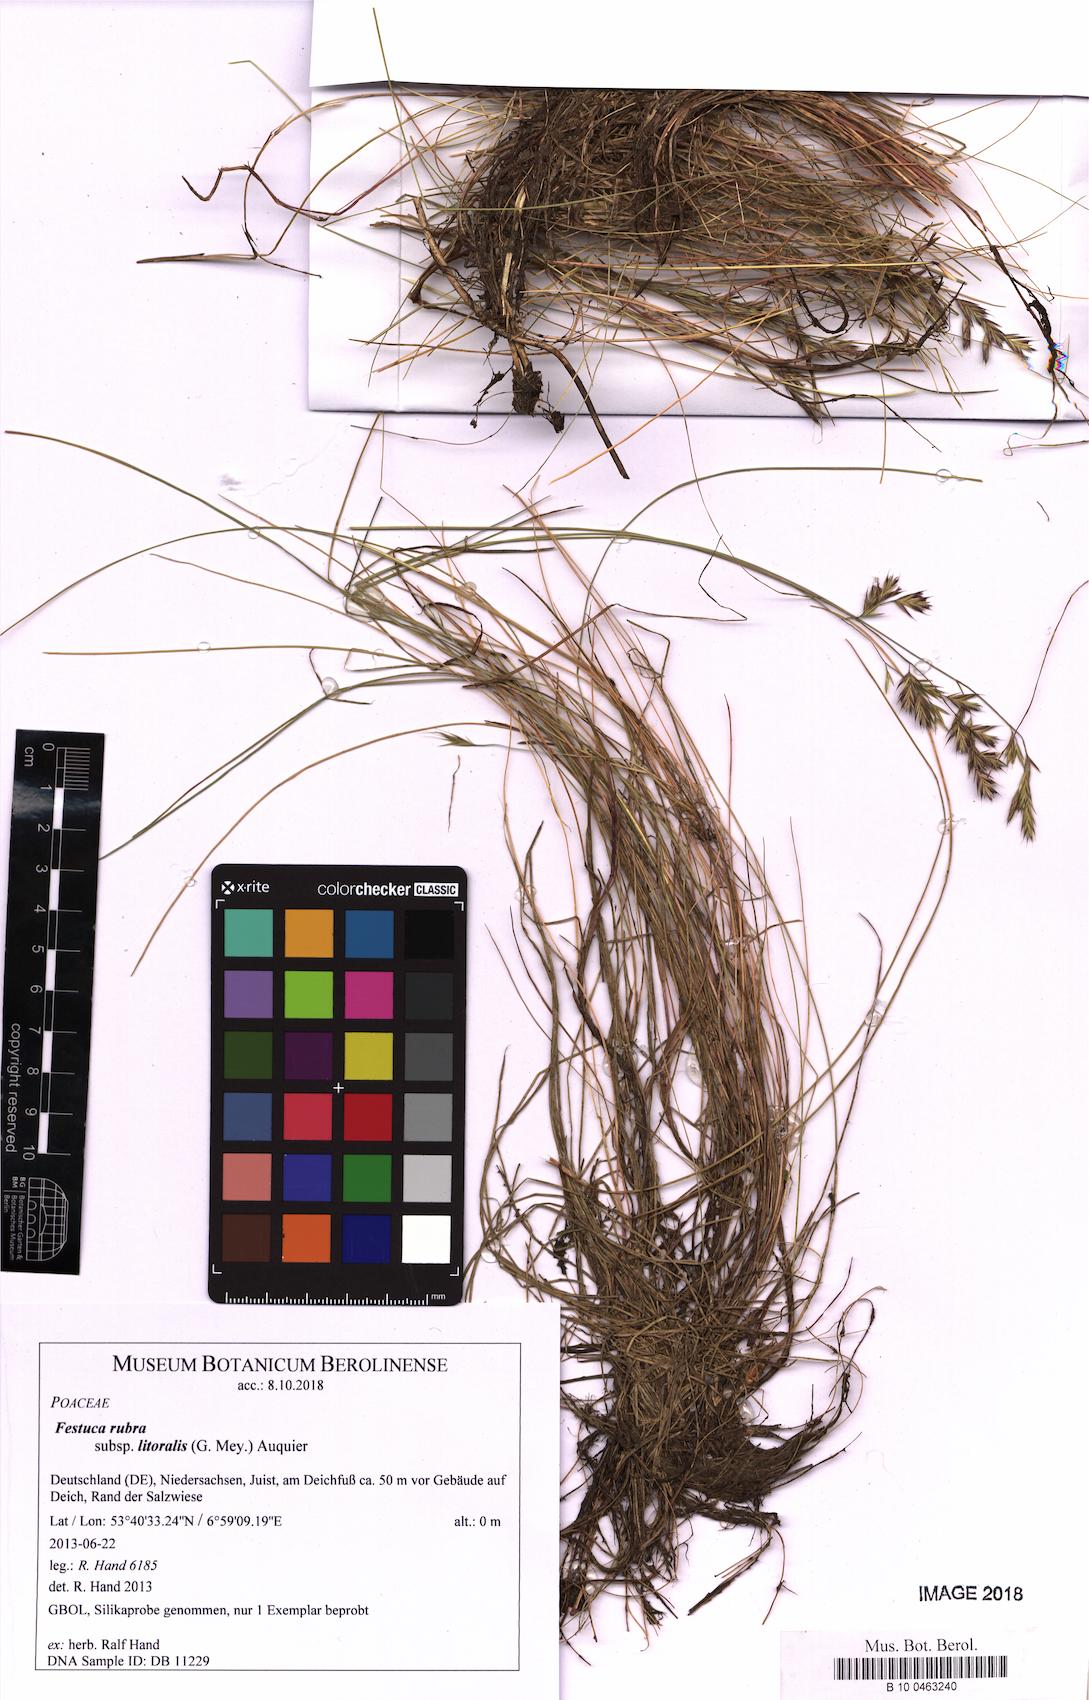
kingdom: Plantae
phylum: Tracheophyta
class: Liliopsida
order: Poales
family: Poaceae
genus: Festuca
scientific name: Festuca rubra
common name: Red fescue
